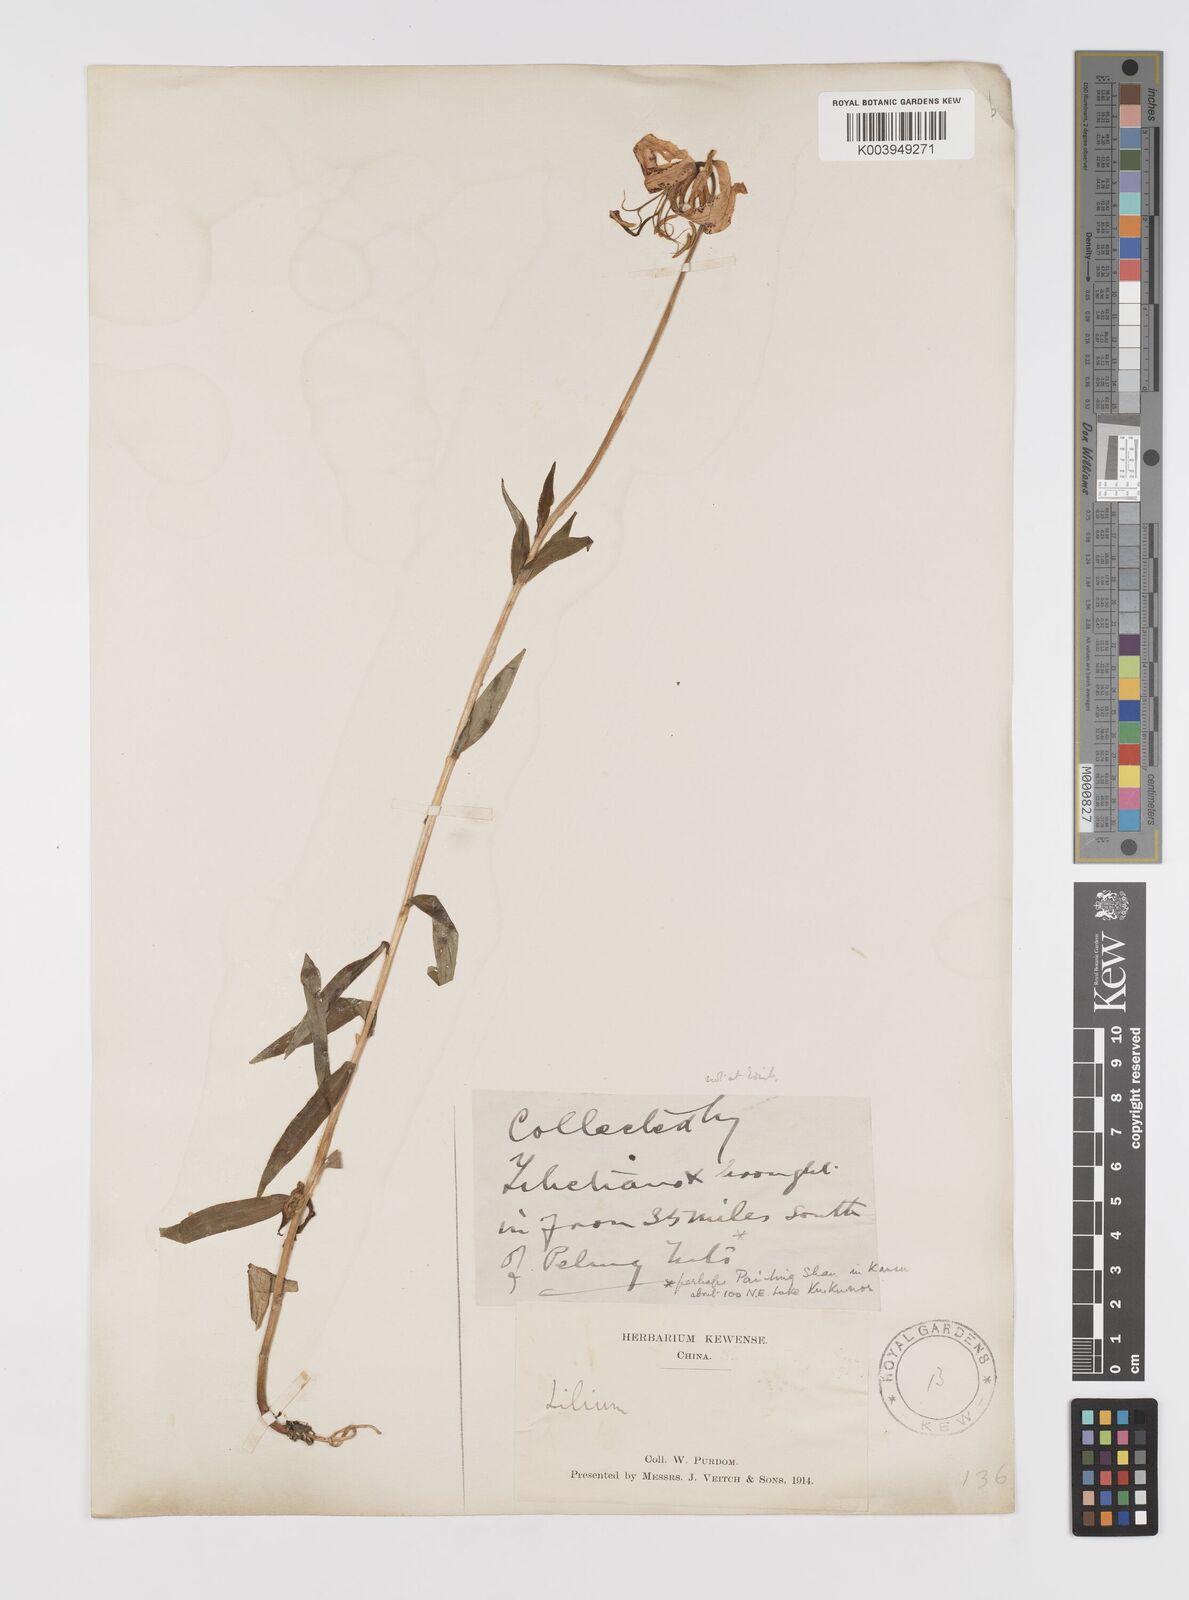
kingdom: Plantae
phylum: Tracheophyta
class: Liliopsida
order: Liliales
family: Liliaceae
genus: Lilium
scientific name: Lilium duchartrei
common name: Duchartre lily
